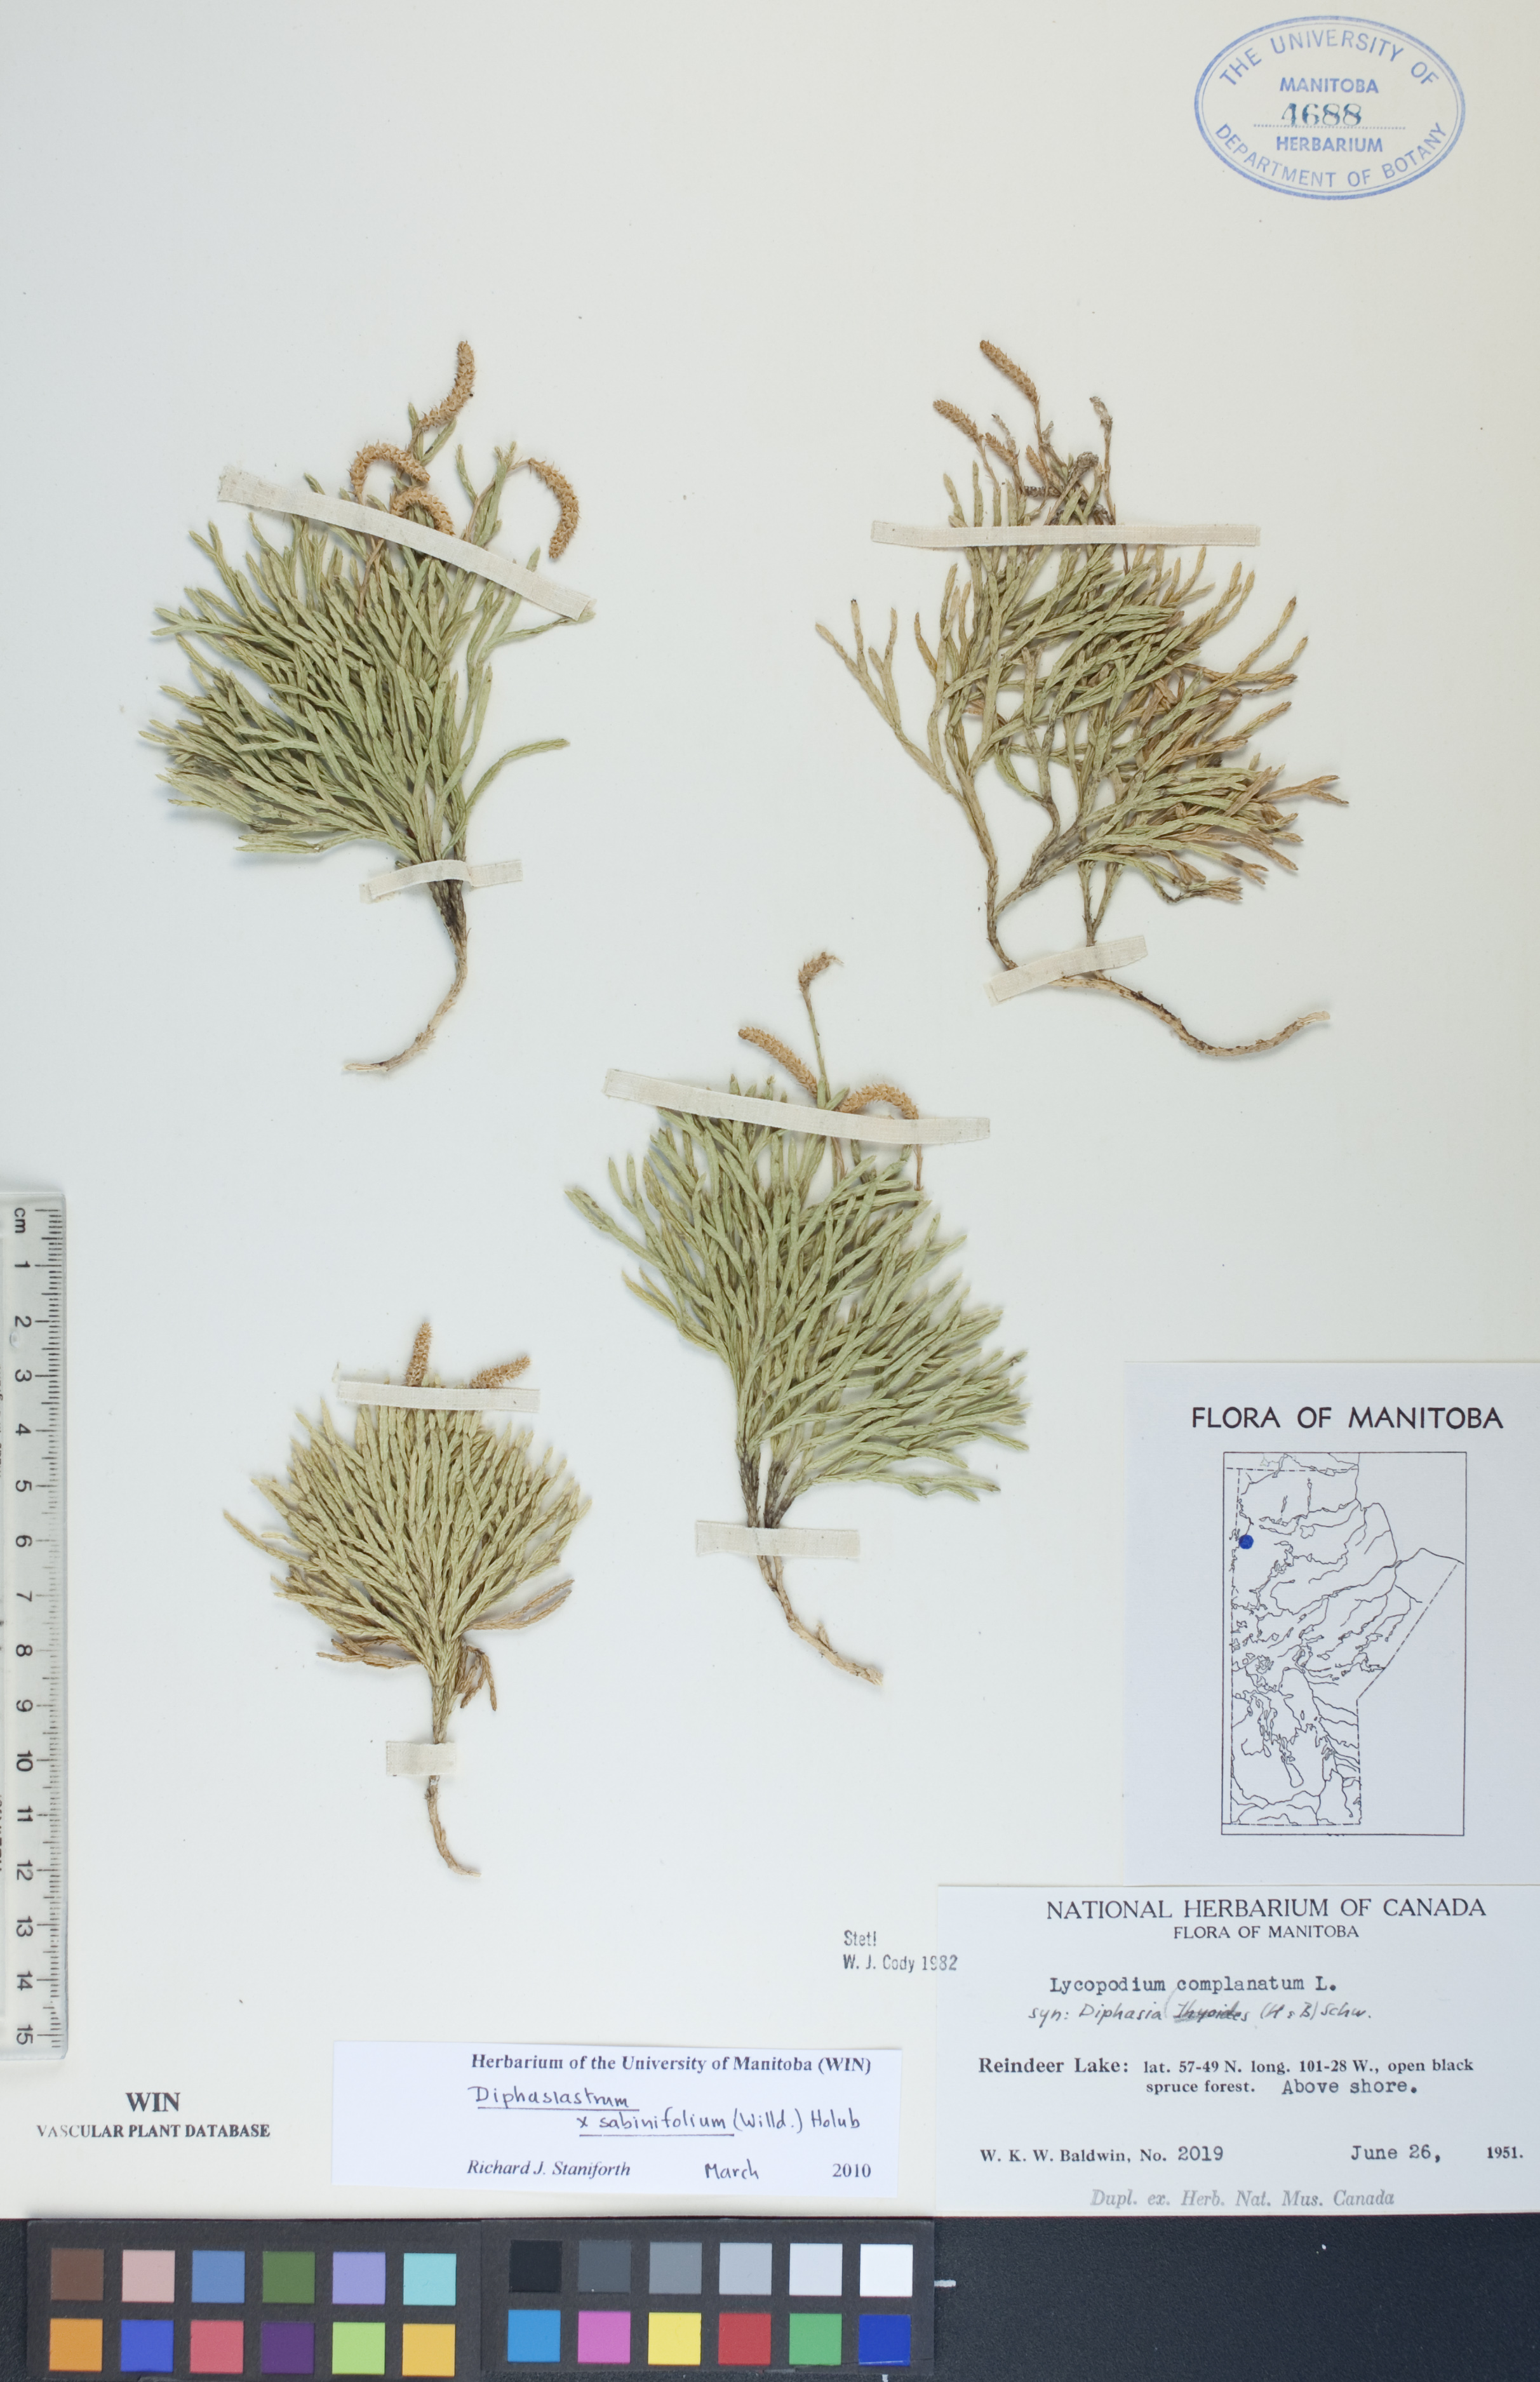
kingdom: Plantae
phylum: Tracheophyta
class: Lycopodiopsida
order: Lycopodiales
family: Lycopodiaceae
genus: Diphasiastrum
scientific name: Diphasiastrum sabinifolium
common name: Juniper clubmoss
